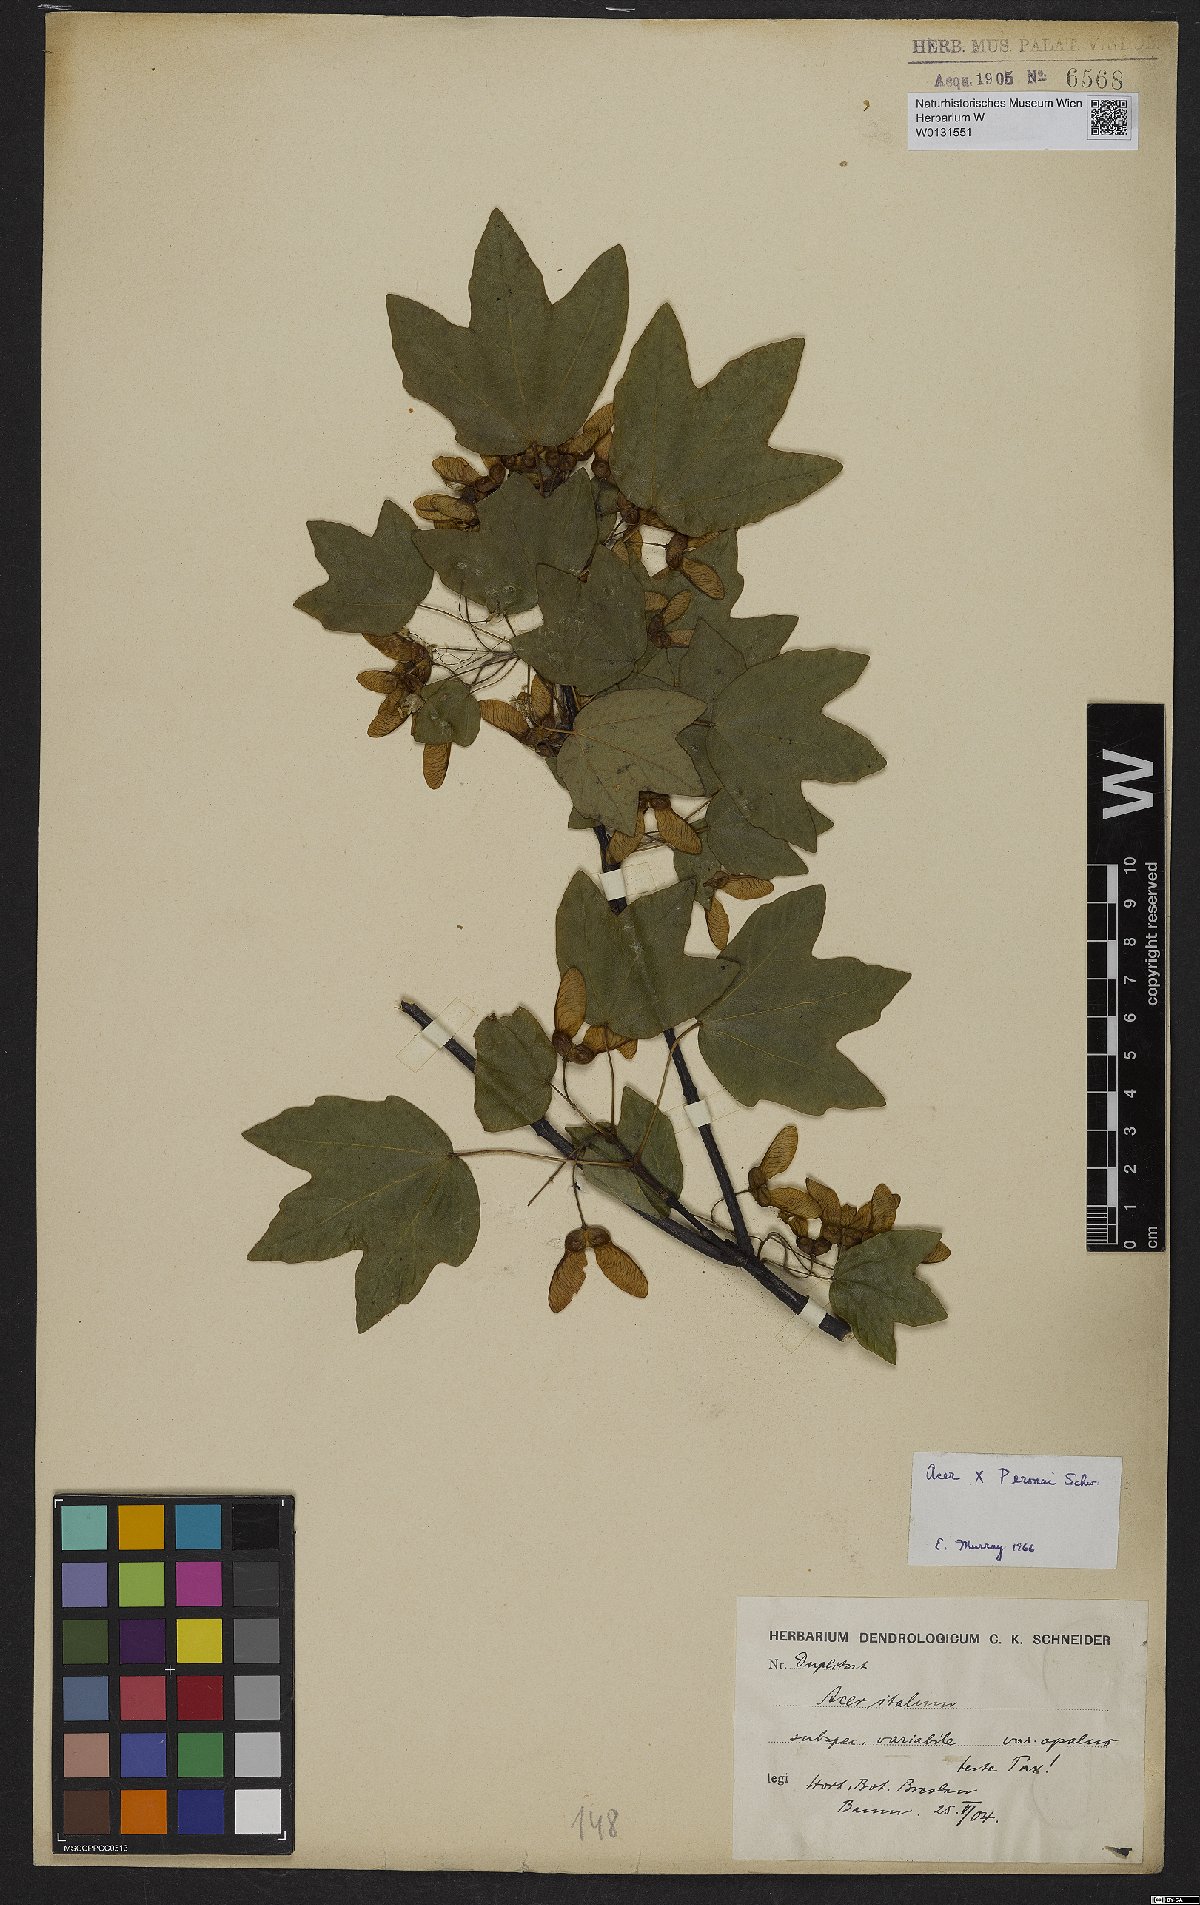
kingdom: Plantae
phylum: Tracheophyta
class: Magnoliopsida
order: Sapindales
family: Aceraceae
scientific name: Aceraceae
